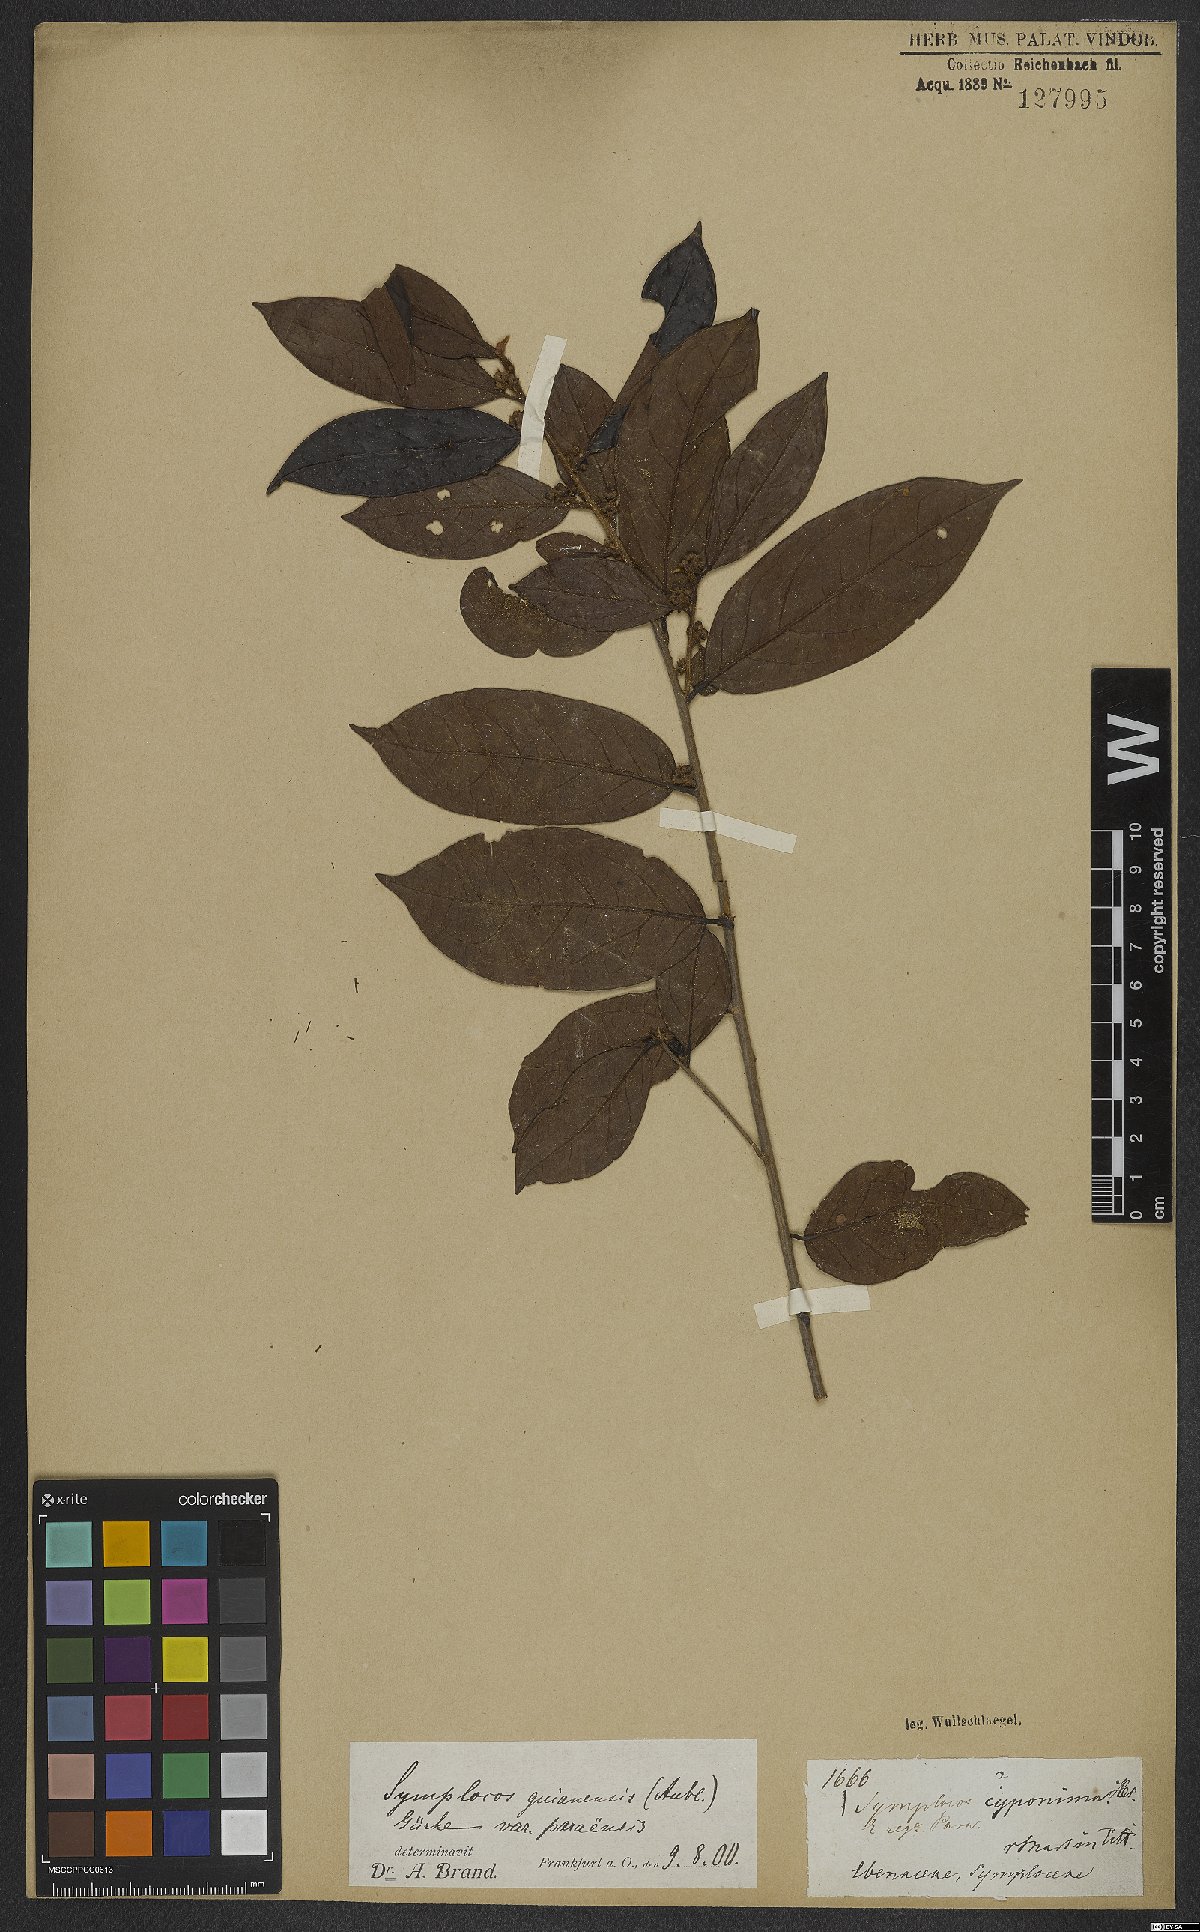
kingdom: Plantae
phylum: Tracheophyta
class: Magnoliopsida
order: Ericales
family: Symplocaceae
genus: Symplocos
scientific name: Symplocos guianensis
